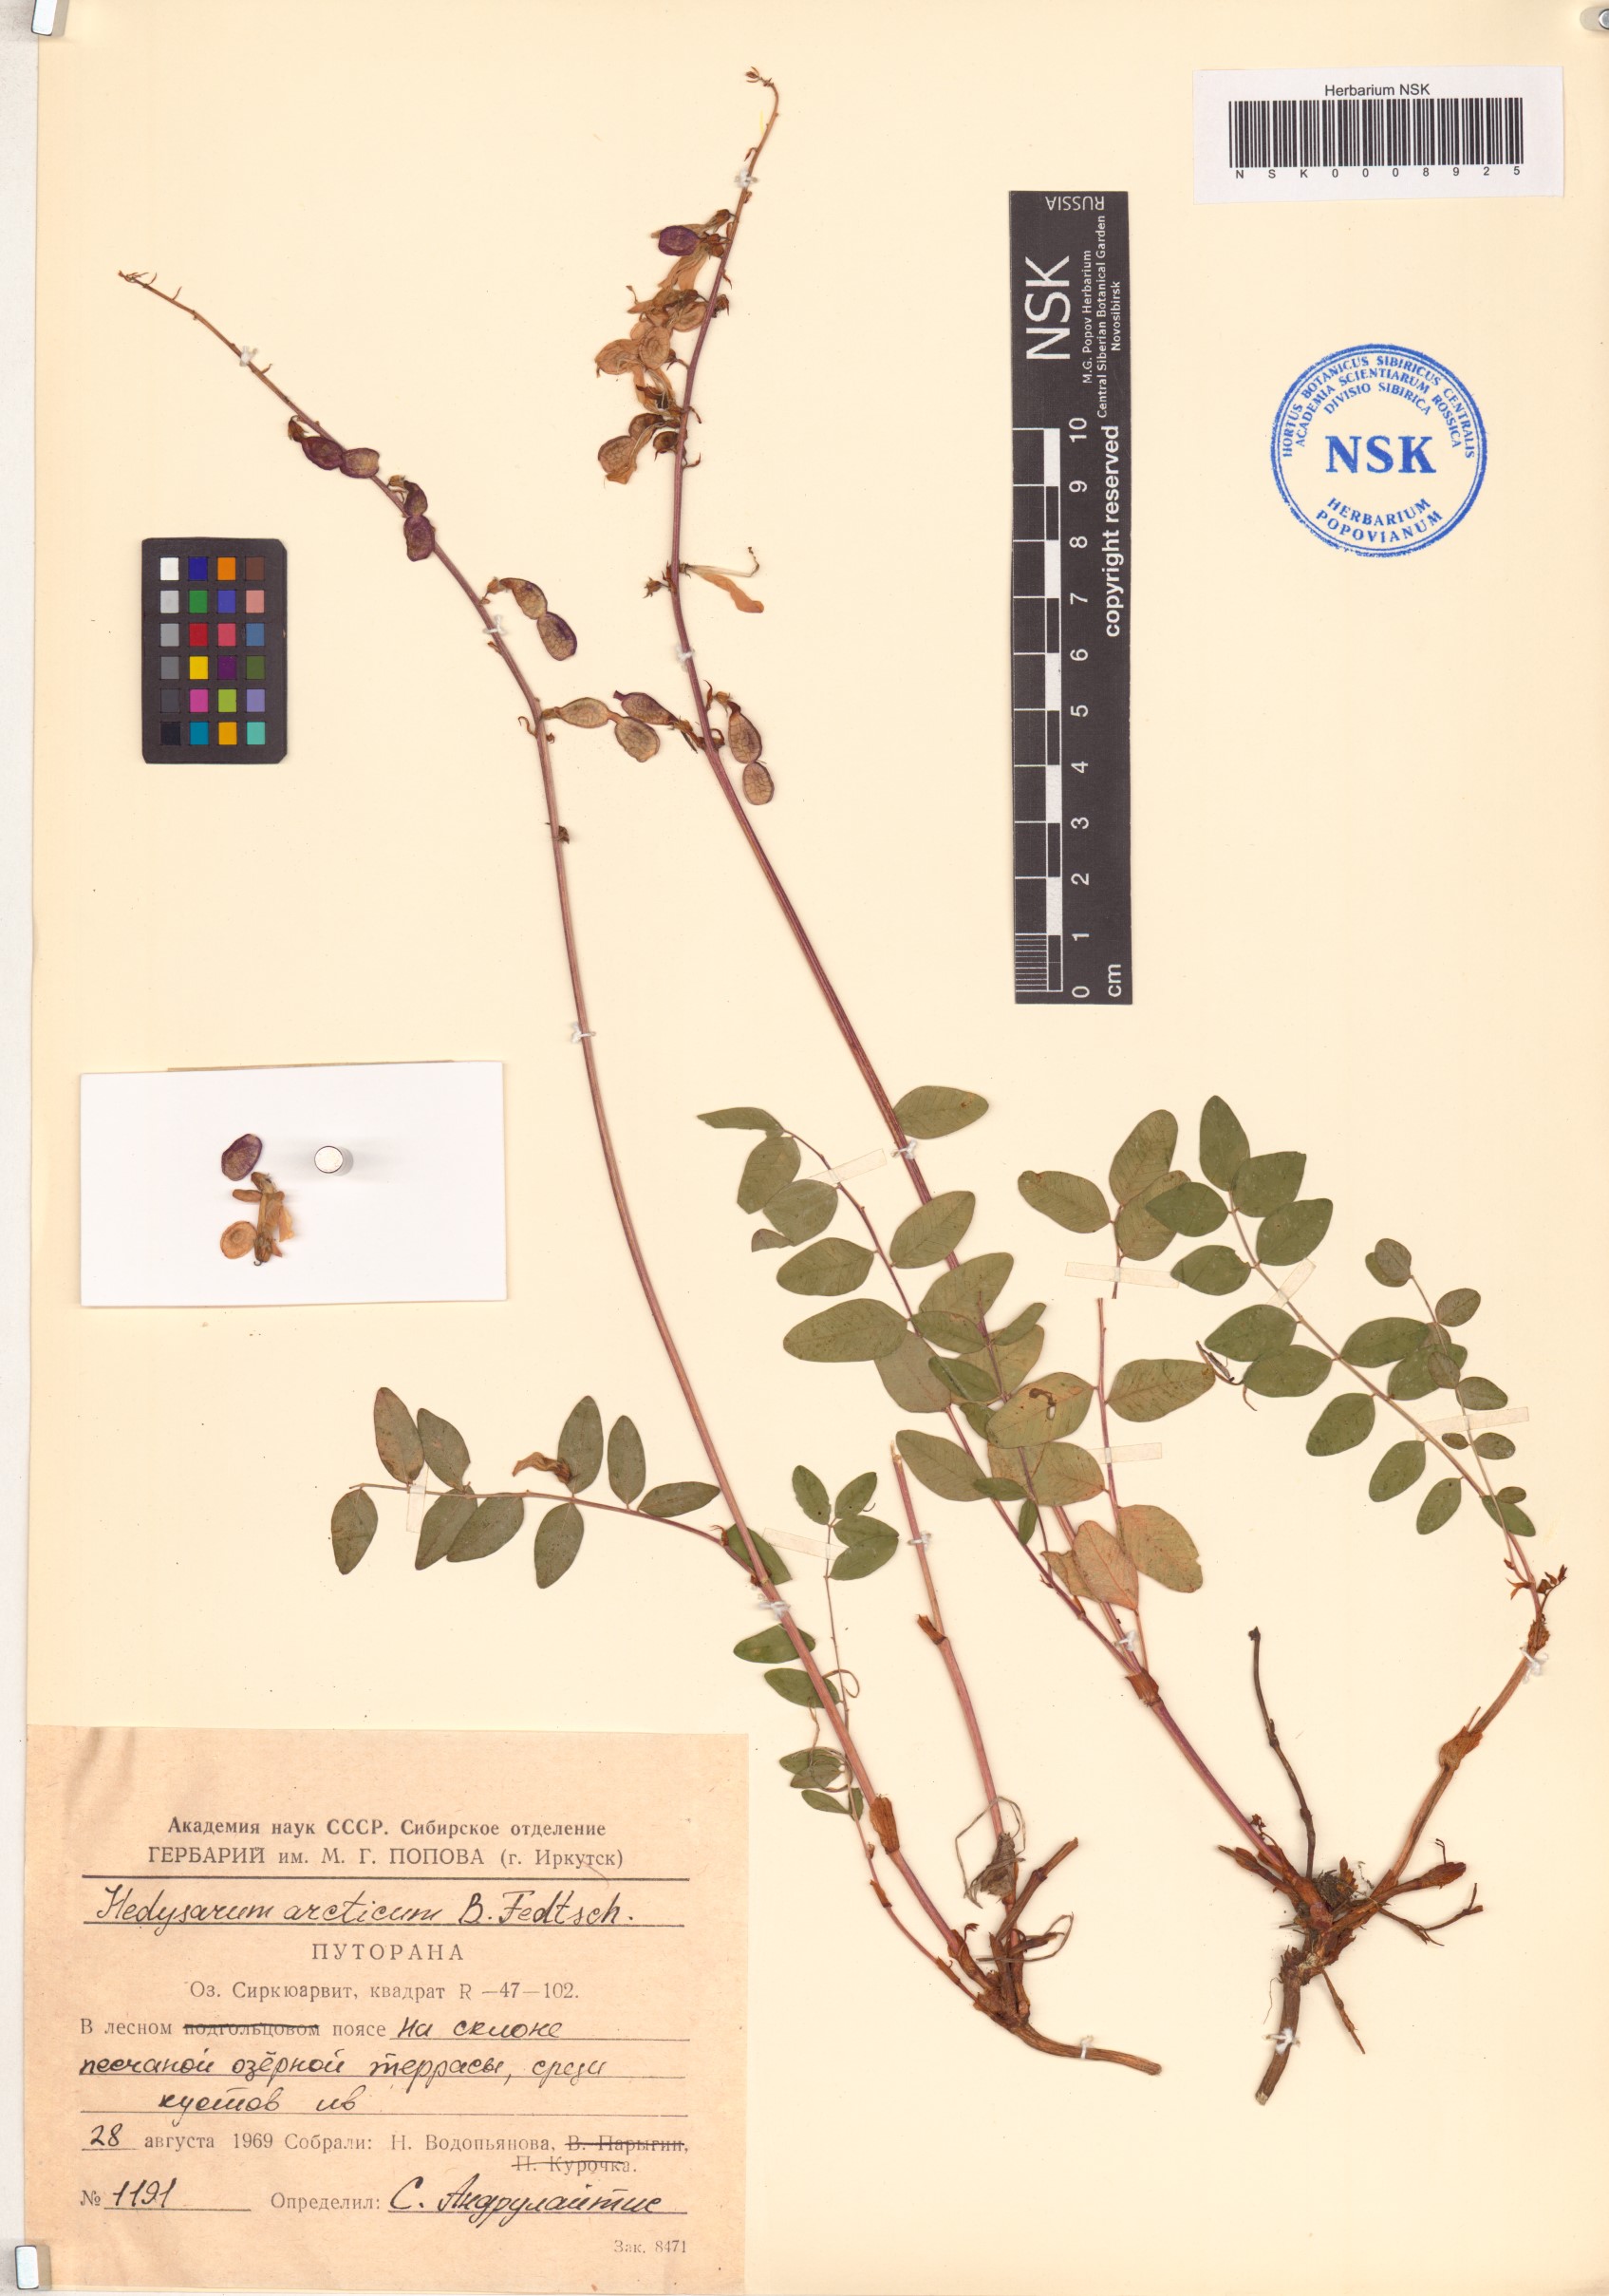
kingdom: Plantae
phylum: Tracheophyta
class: Magnoliopsida
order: Fabales
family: Fabaceae
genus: Hedysarum
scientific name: Hedysarum hedysaroides
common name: Alpine french-honeysuckle
